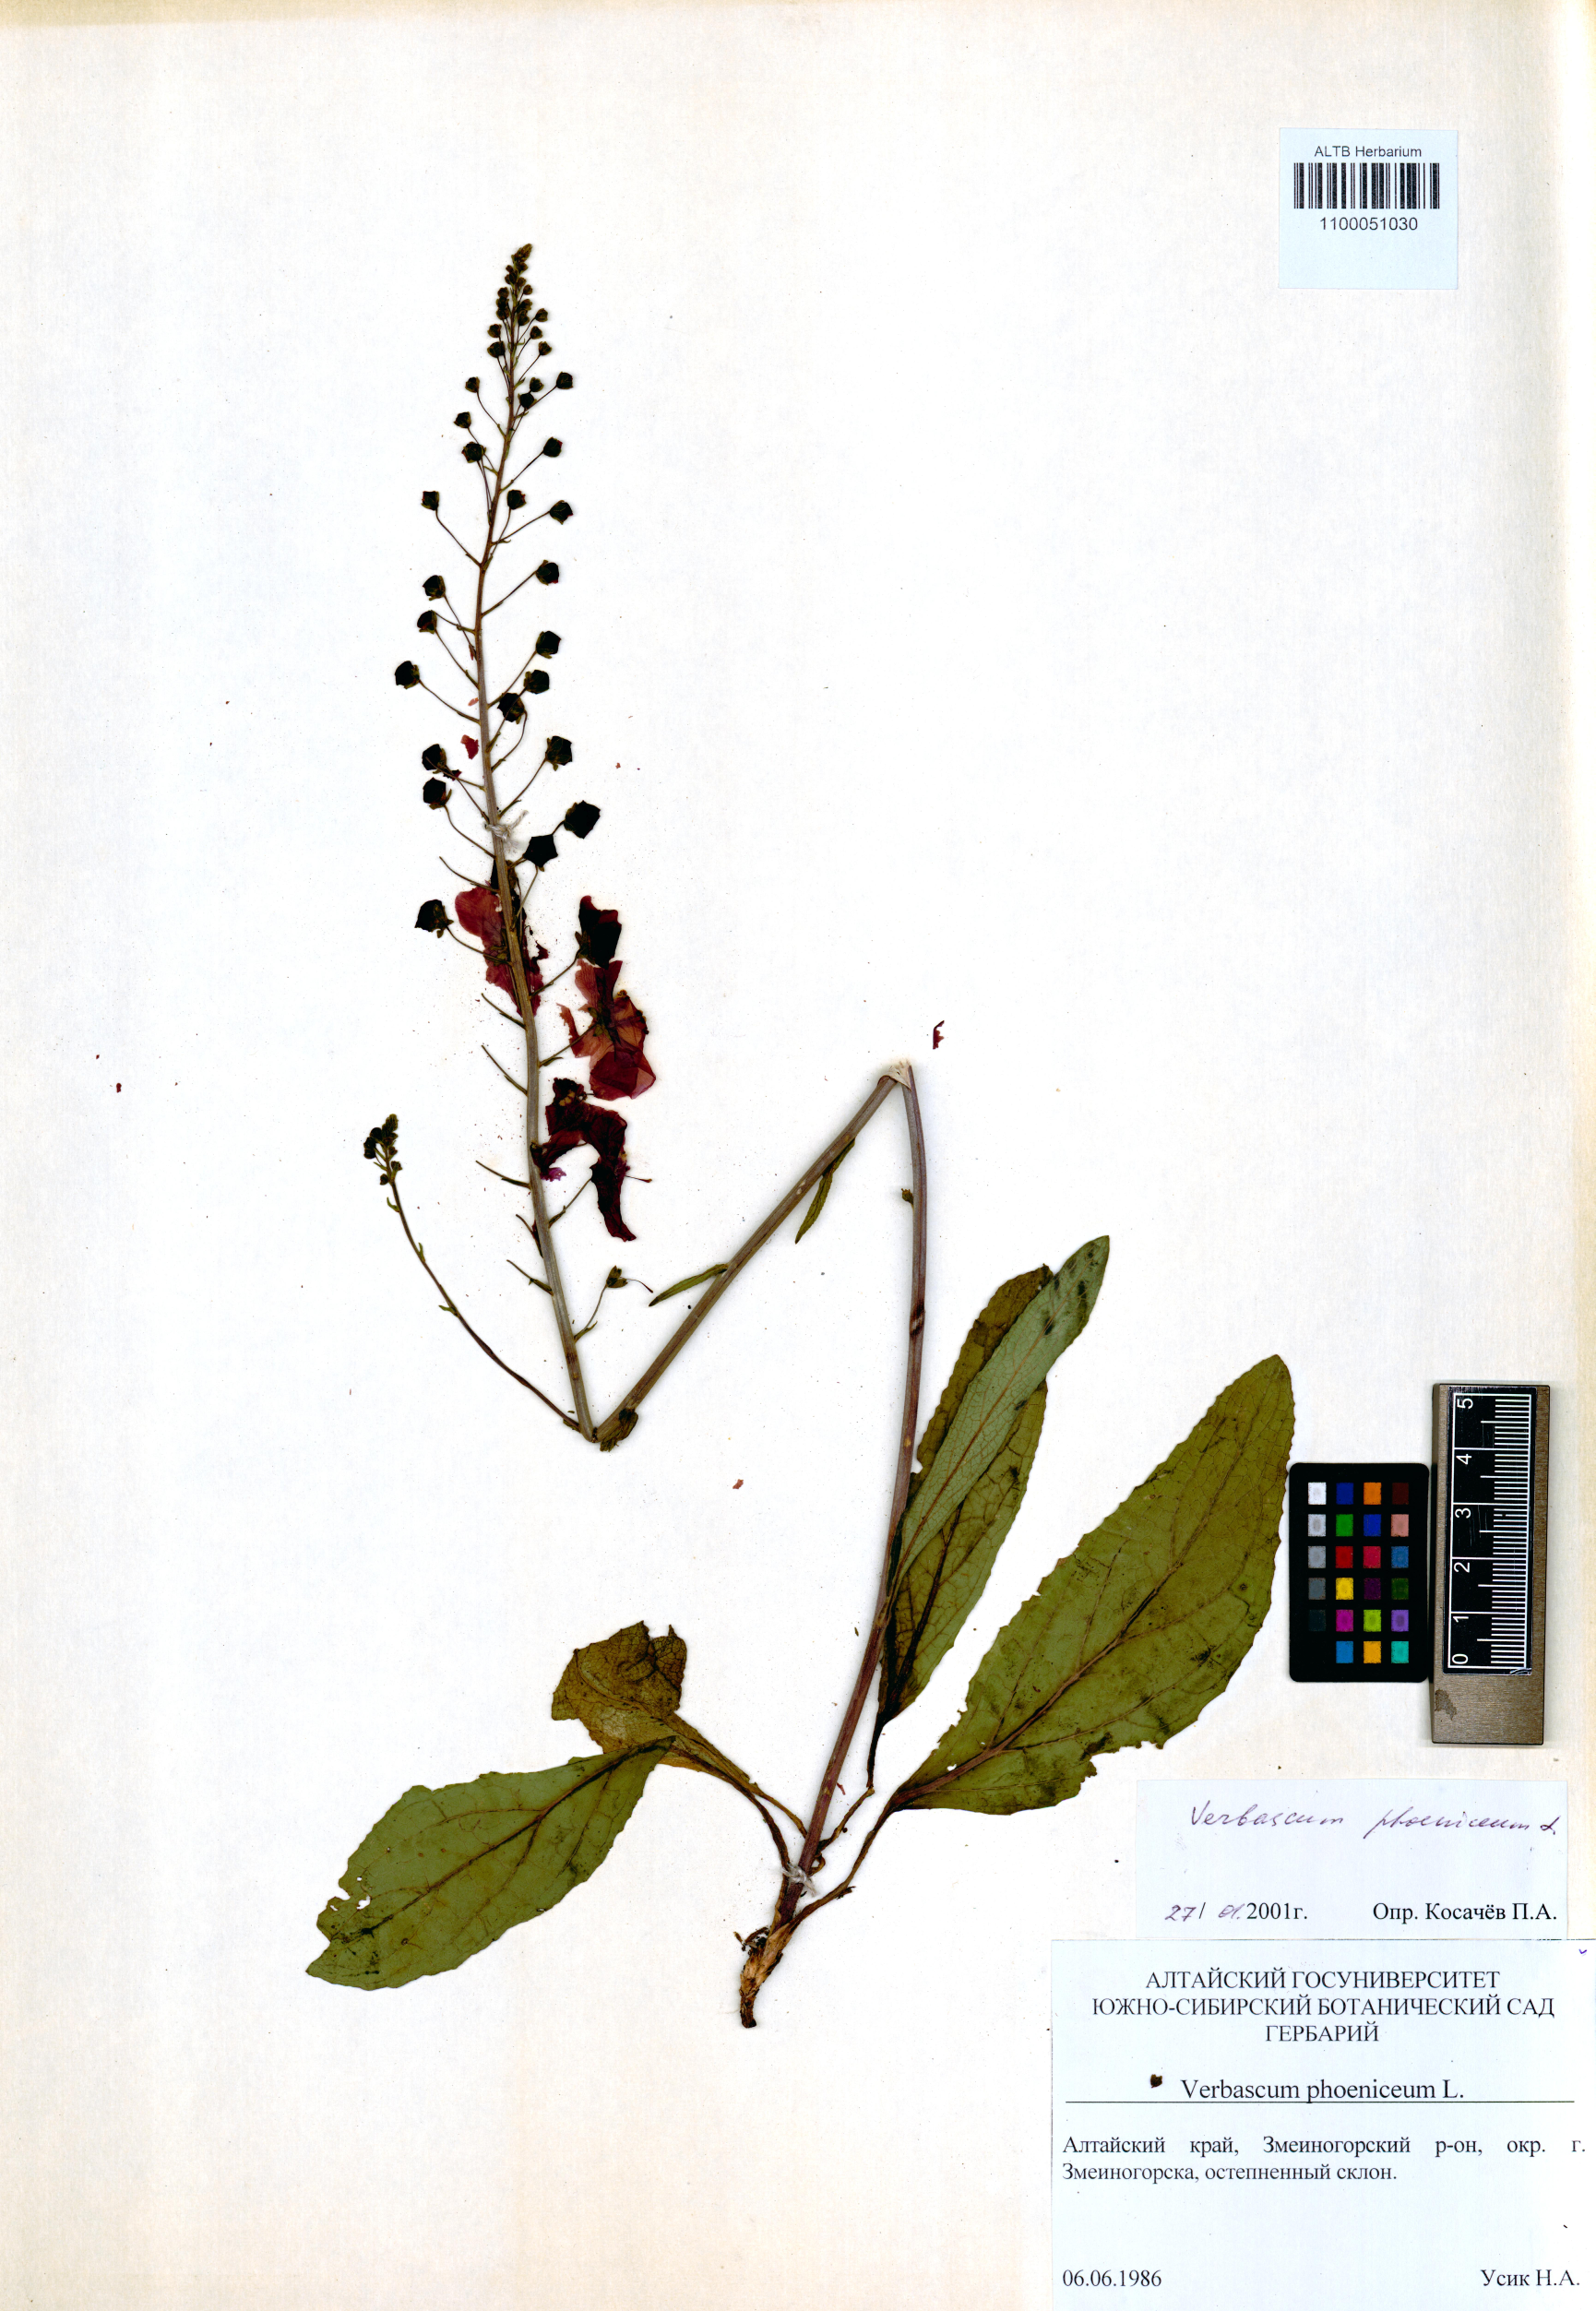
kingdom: Plantae
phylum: Tracheophyta
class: Magnoliopsida
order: Lamiales
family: Scrophulariaceae
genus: Verbascum
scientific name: Verbascum phoeniceum
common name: Purple mullein
